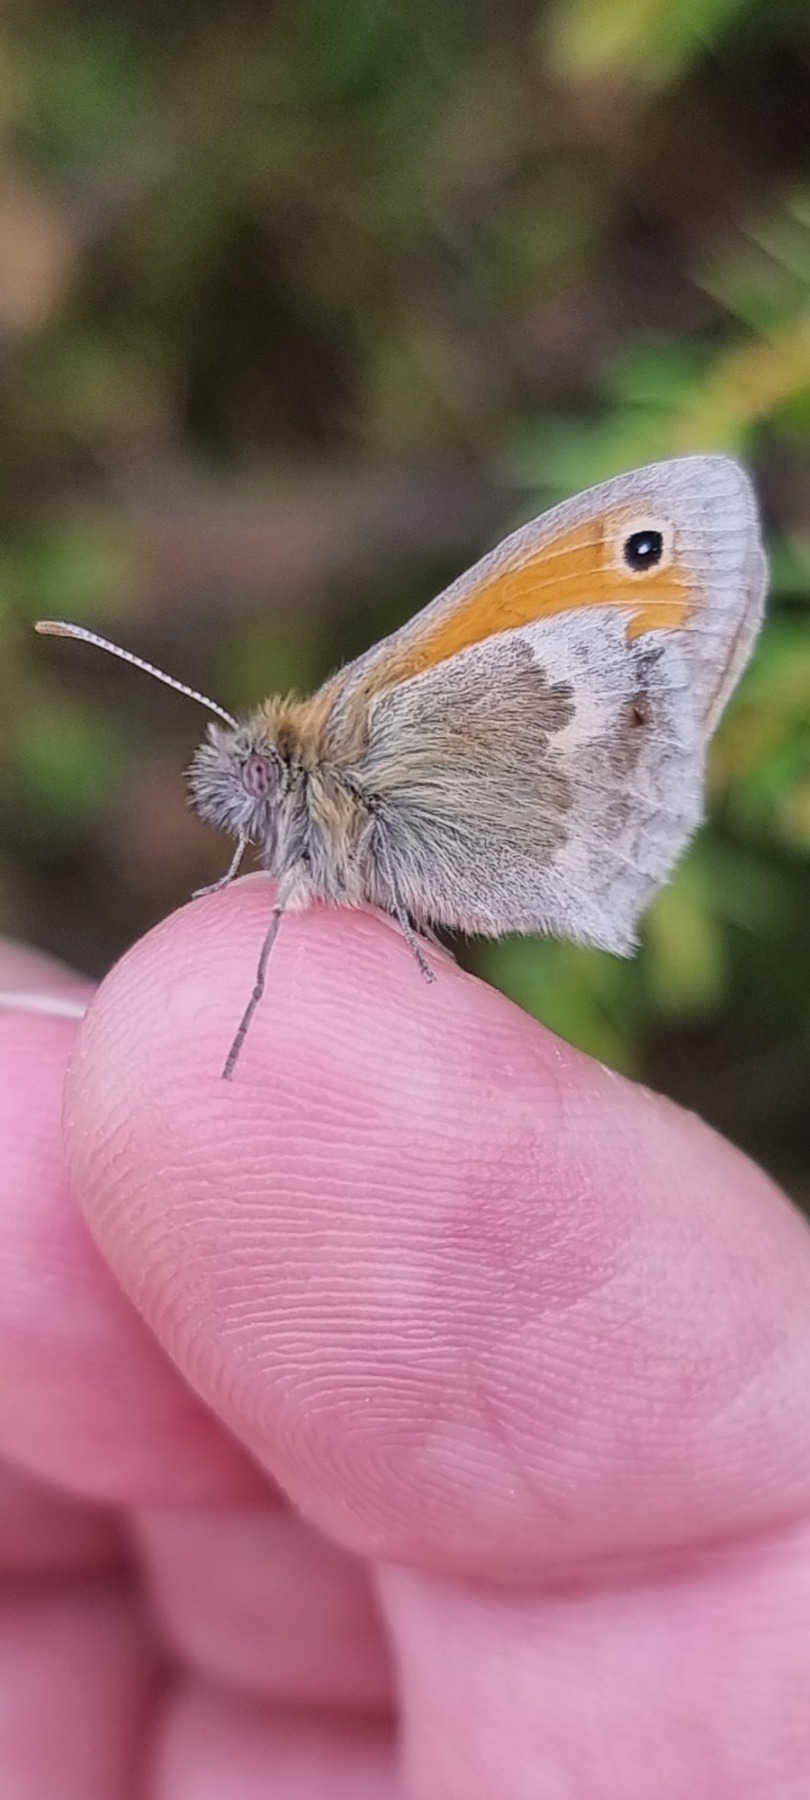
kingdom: Animalia
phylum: Arthropoda
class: Insecta
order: Lepidoptera
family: Nymphalidae
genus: Coenonympha
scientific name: Coenonympha pamphilus
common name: Okkergul randøje
